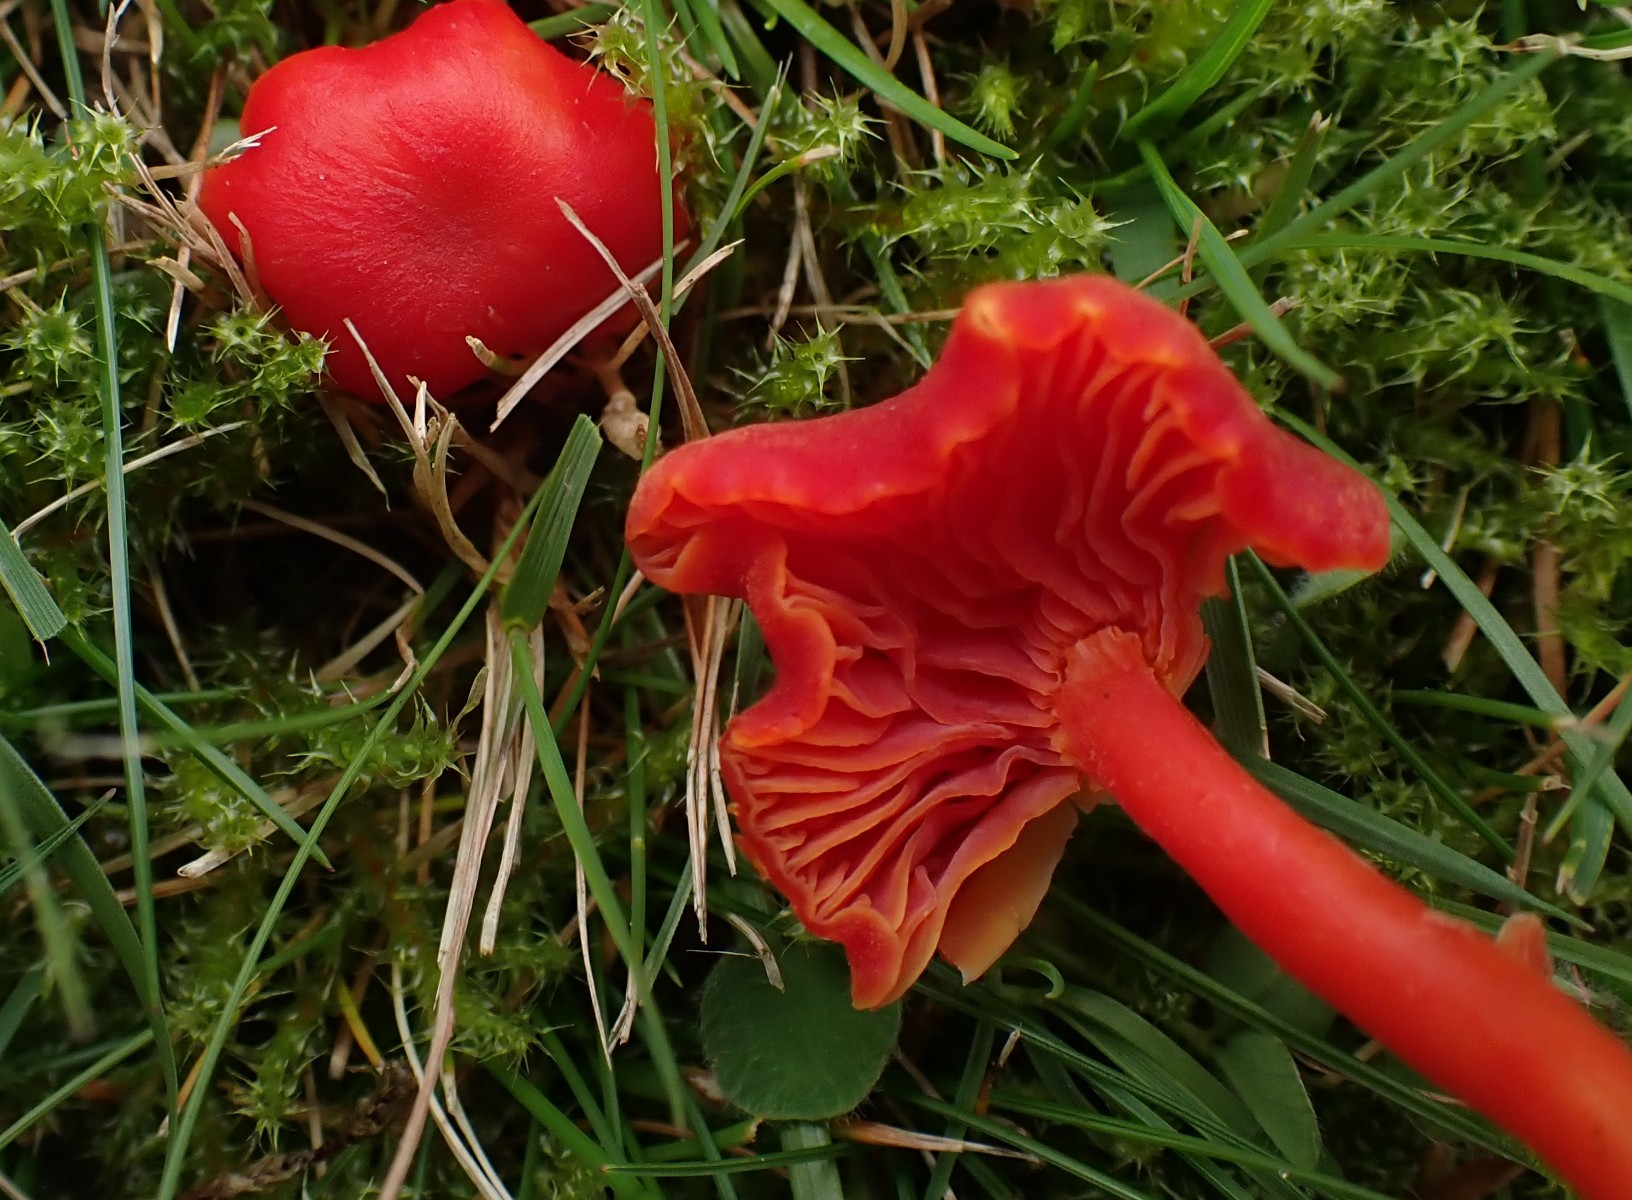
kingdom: Fungi
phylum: Basidiomycota
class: Agaricomycetes
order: Agaricales
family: Hygrophoraceae
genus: Hygrocybe
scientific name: Hygrocybe phaeococcinea
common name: sortdugget vokshat
